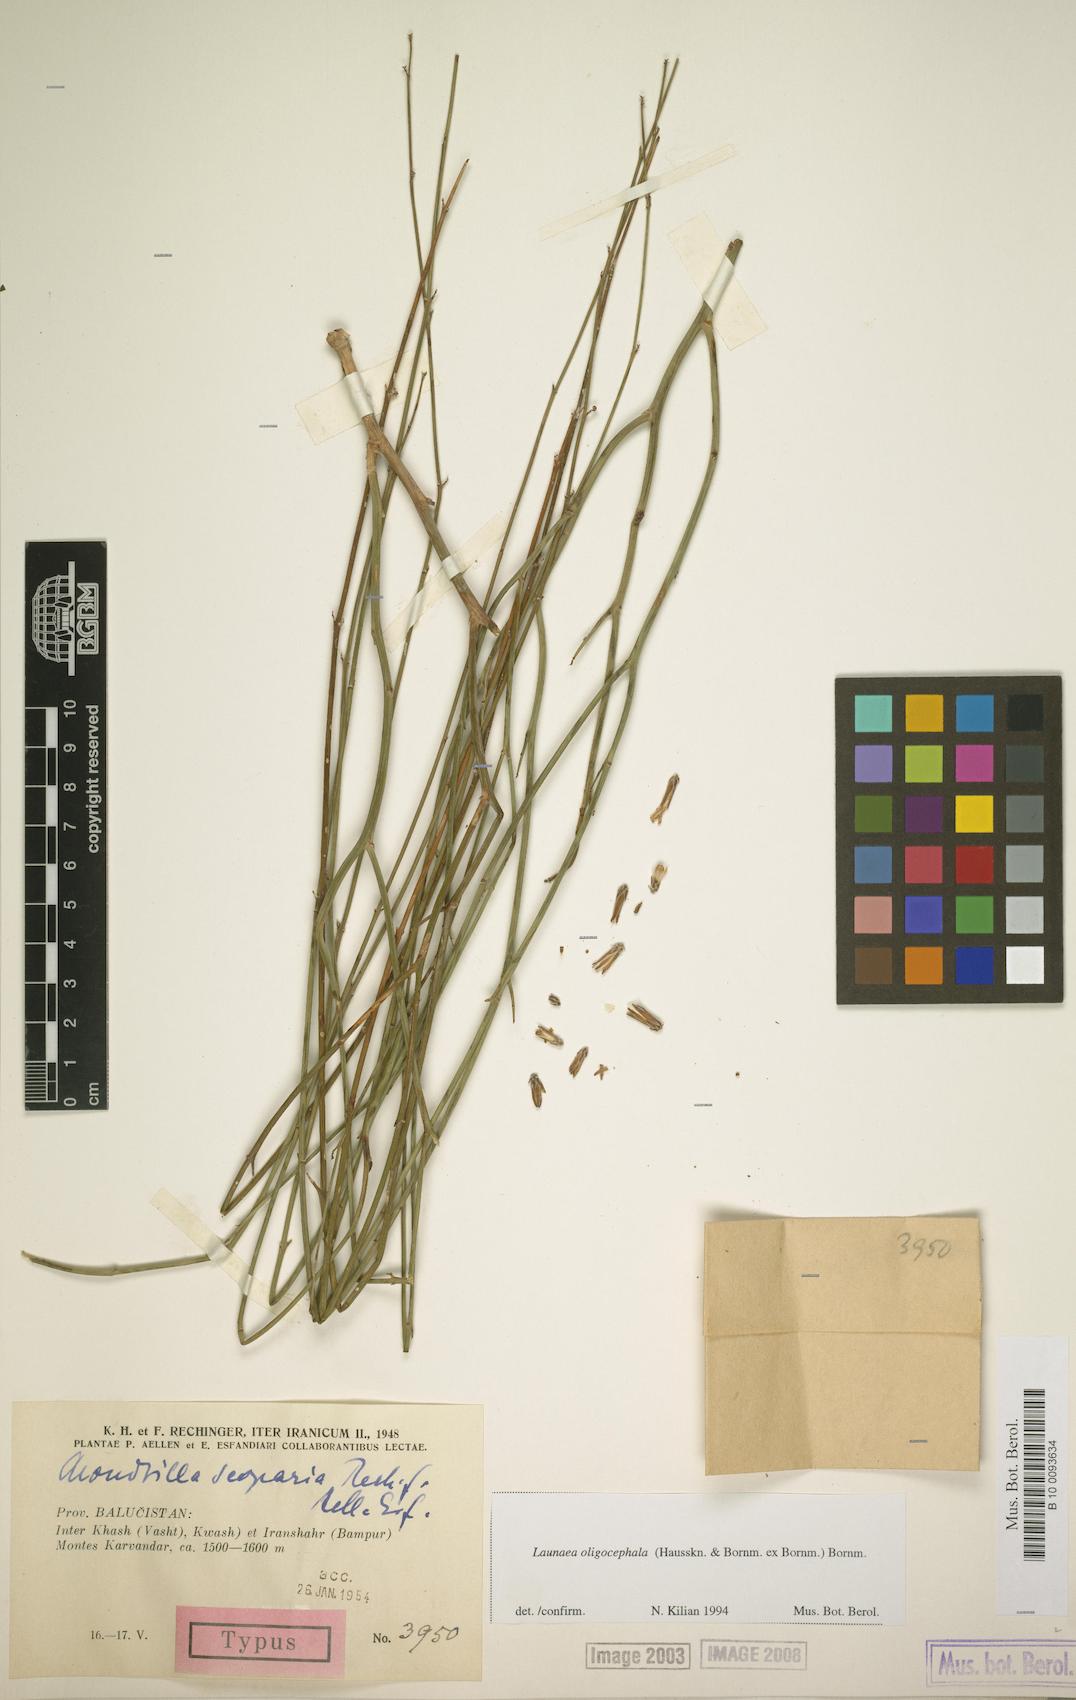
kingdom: Plantae
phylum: Tracheophyta
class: Magnoliopsida
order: Asterales
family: Asteraceae
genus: Launaea
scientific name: Launaea oligocephala
